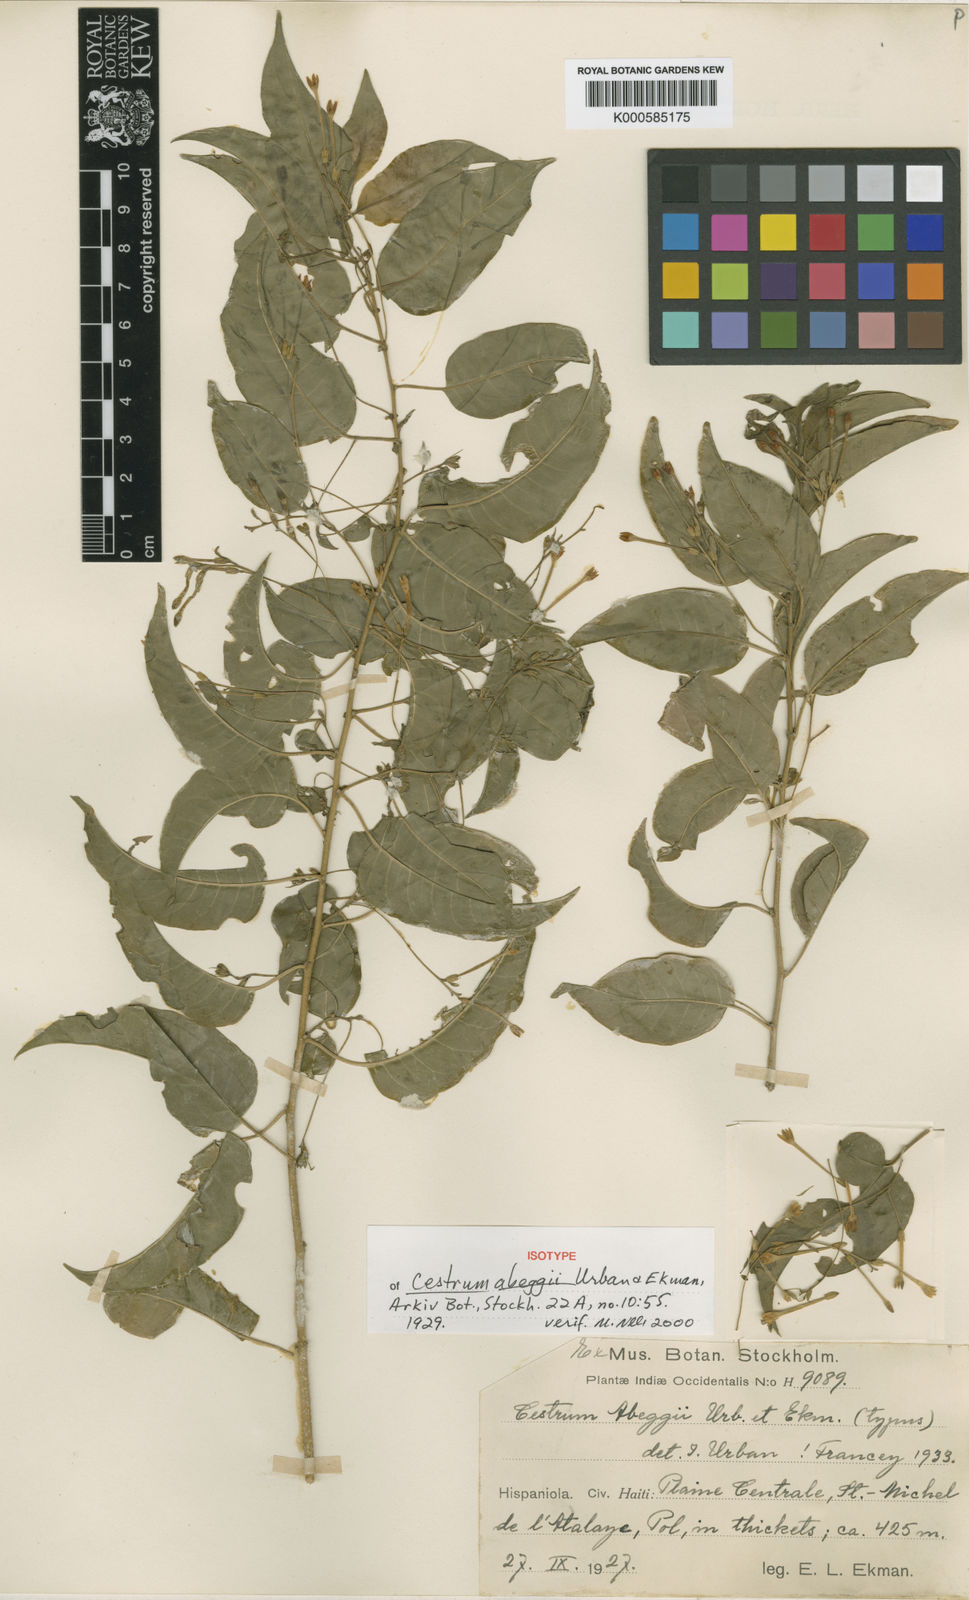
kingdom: Plantae
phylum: Tracheophyta
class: Magnoliopsida
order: Solanales
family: Solanaceae
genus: Cestrum
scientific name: Cestrum abeggii
